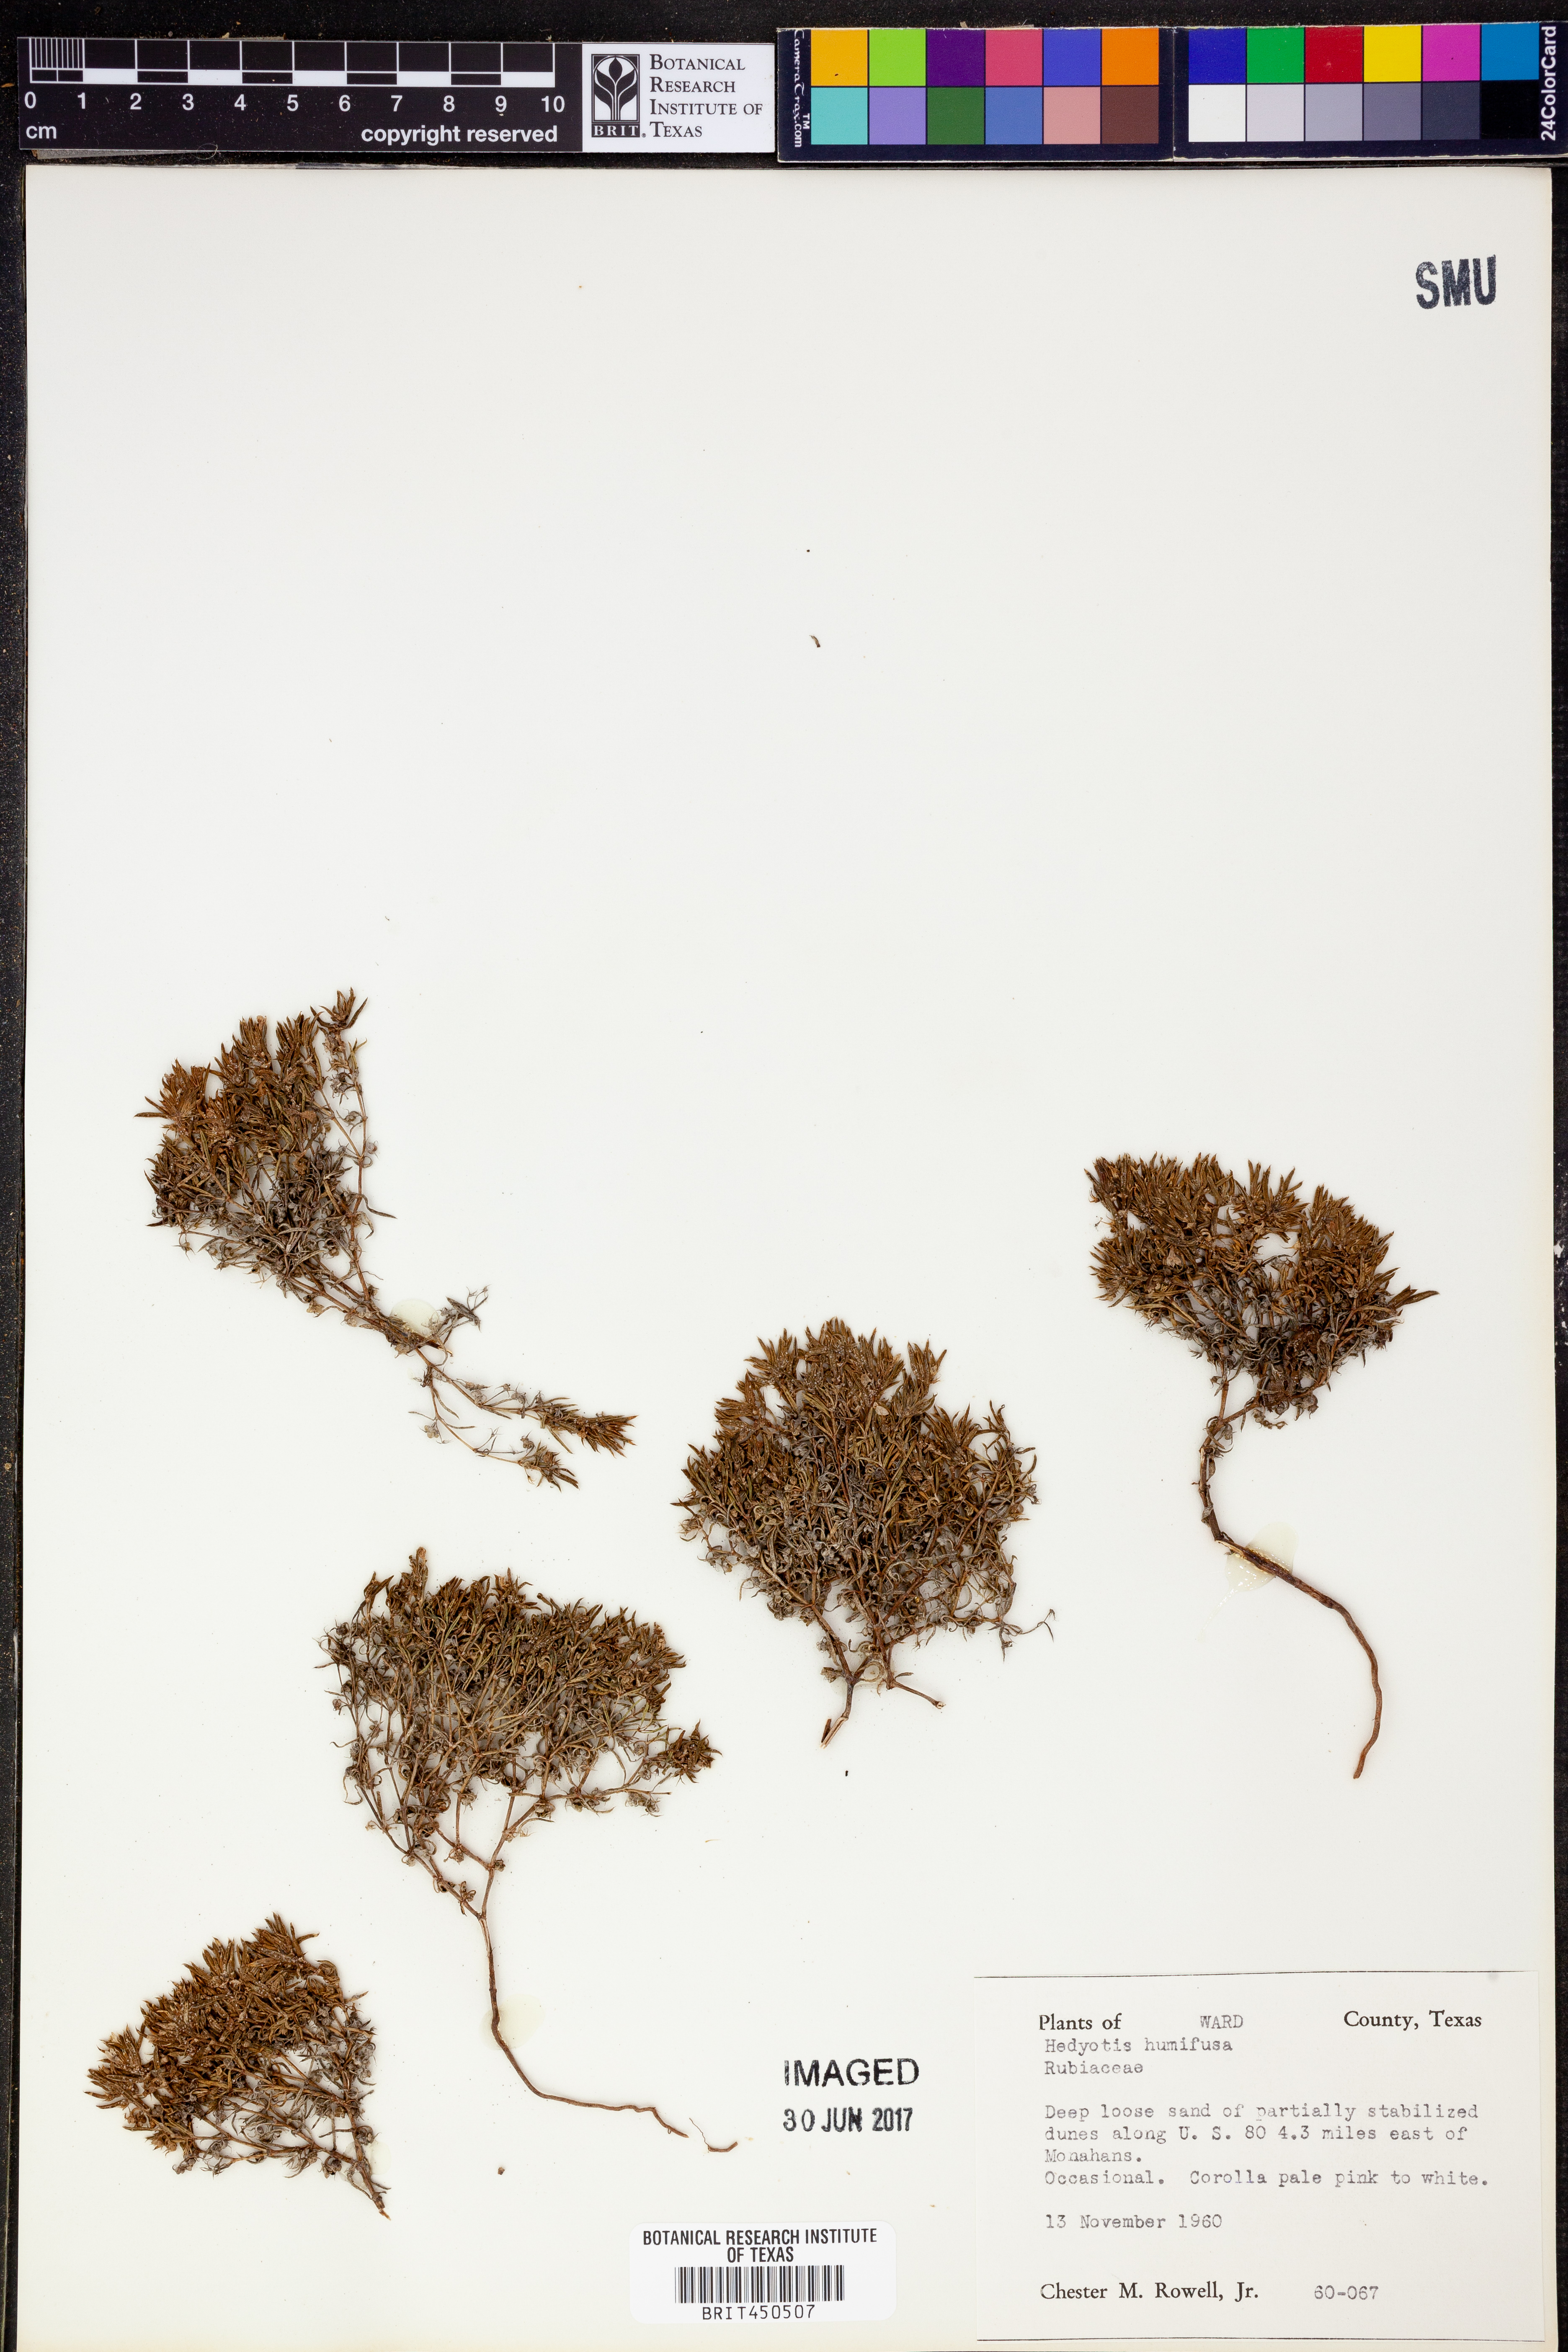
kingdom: Plantae
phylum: Tracheophyta
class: Magnoliopsida
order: Gentianales
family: Rubiaceae
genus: Houstonia
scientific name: Houstonia humifusa
